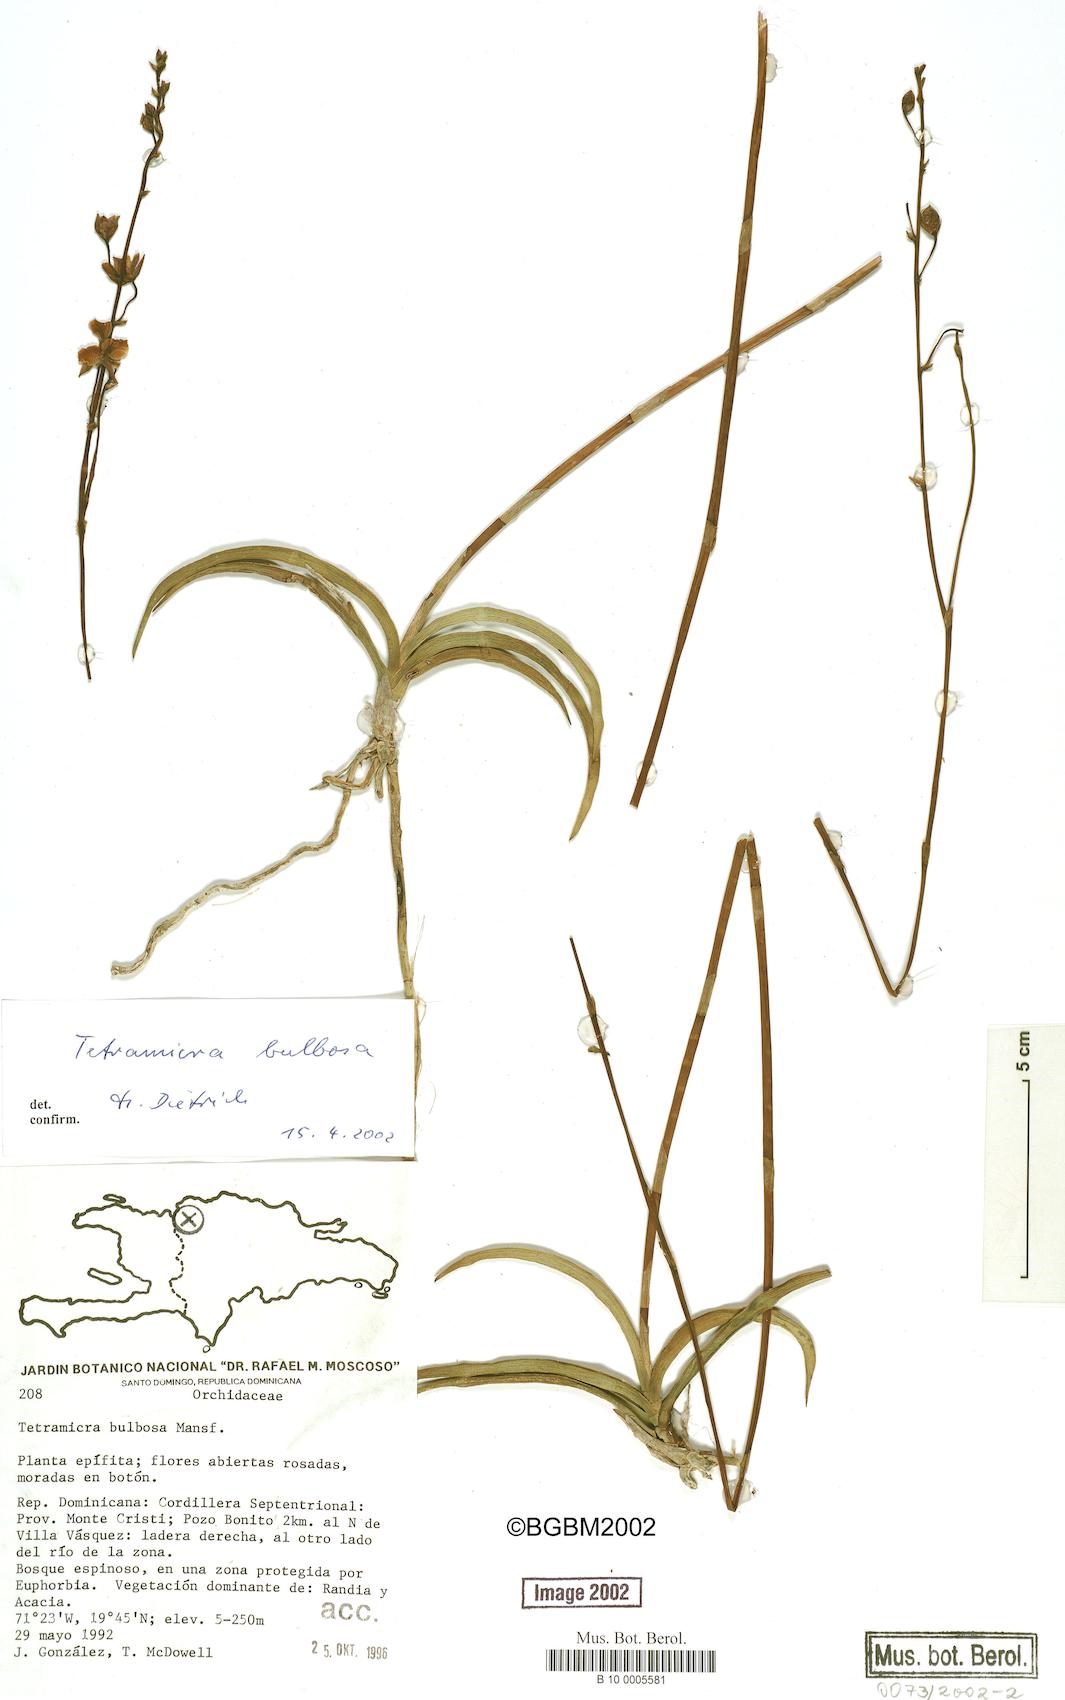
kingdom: Plantae
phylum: Tracheophyta
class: Liliopsida
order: Asparagales
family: Orchidaceae
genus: Tetramicra
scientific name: Tetramicra bulbosa
